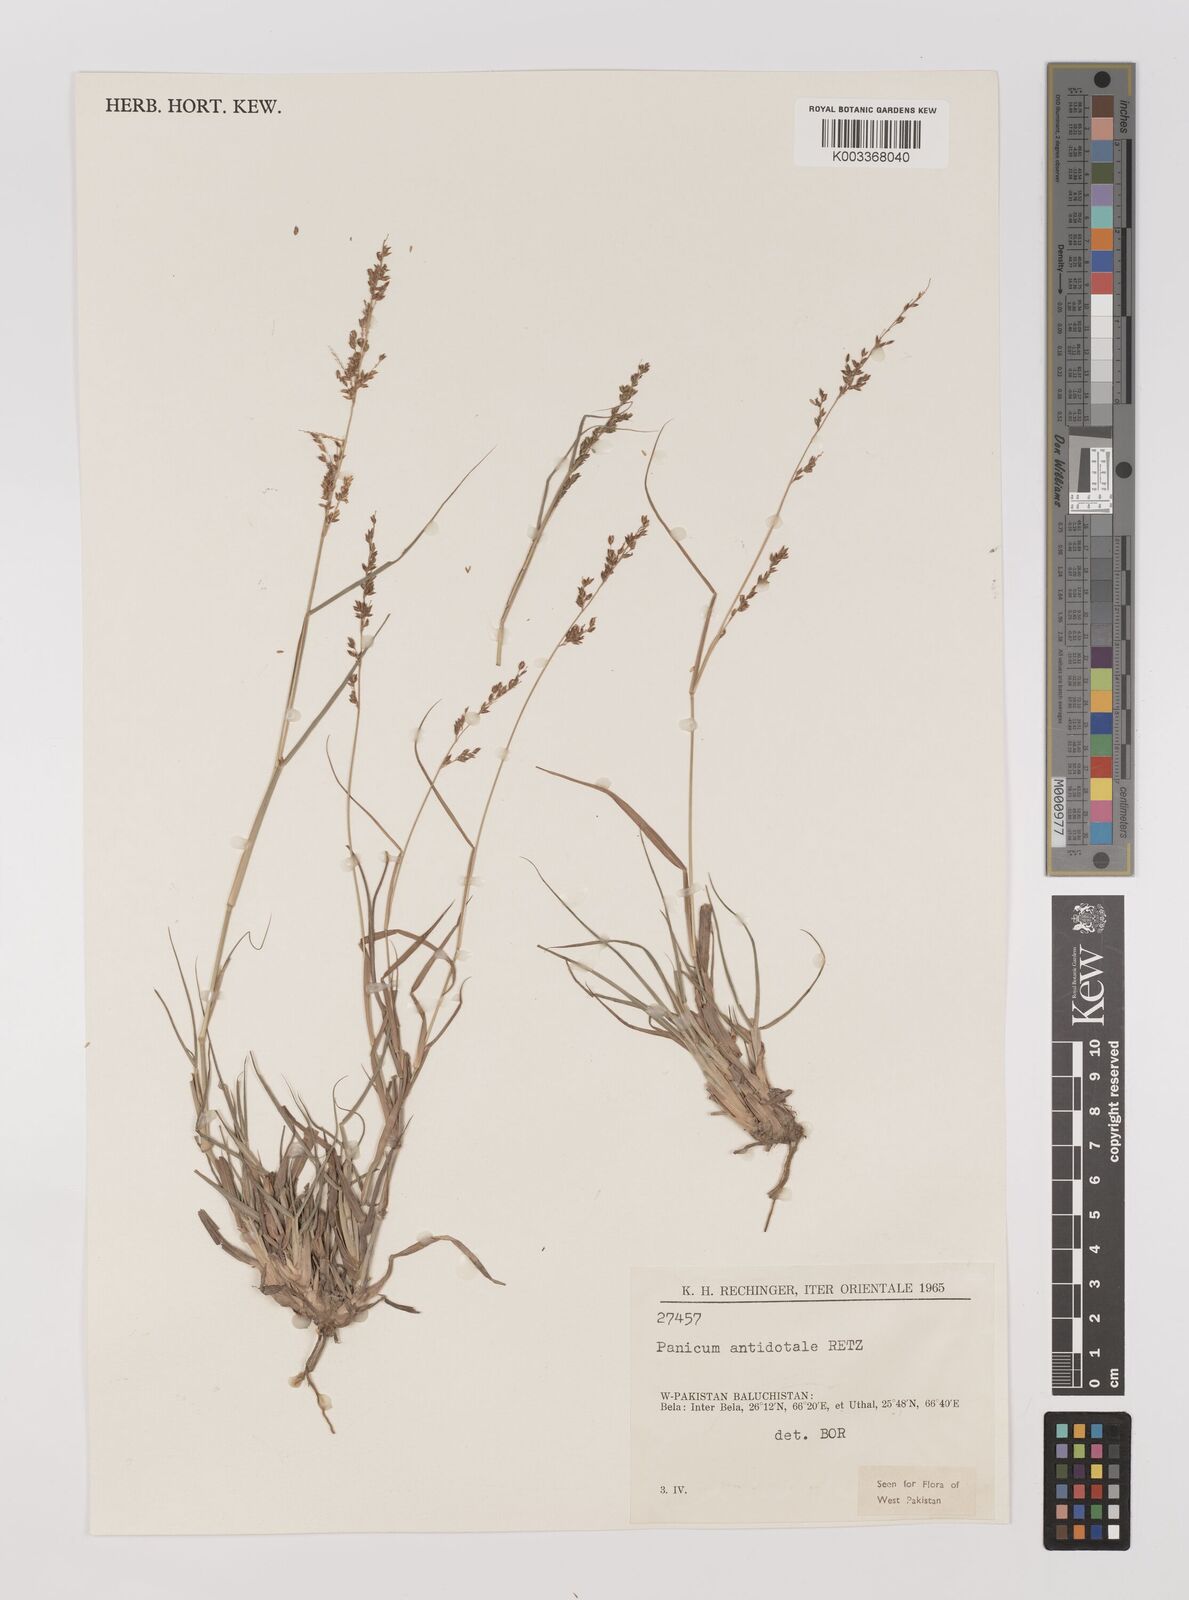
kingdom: Plantae
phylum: Tracheophyta
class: Liliopsida
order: Poales
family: Poaceae
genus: Panicum
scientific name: Panicum antidotale
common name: Blue panicum
